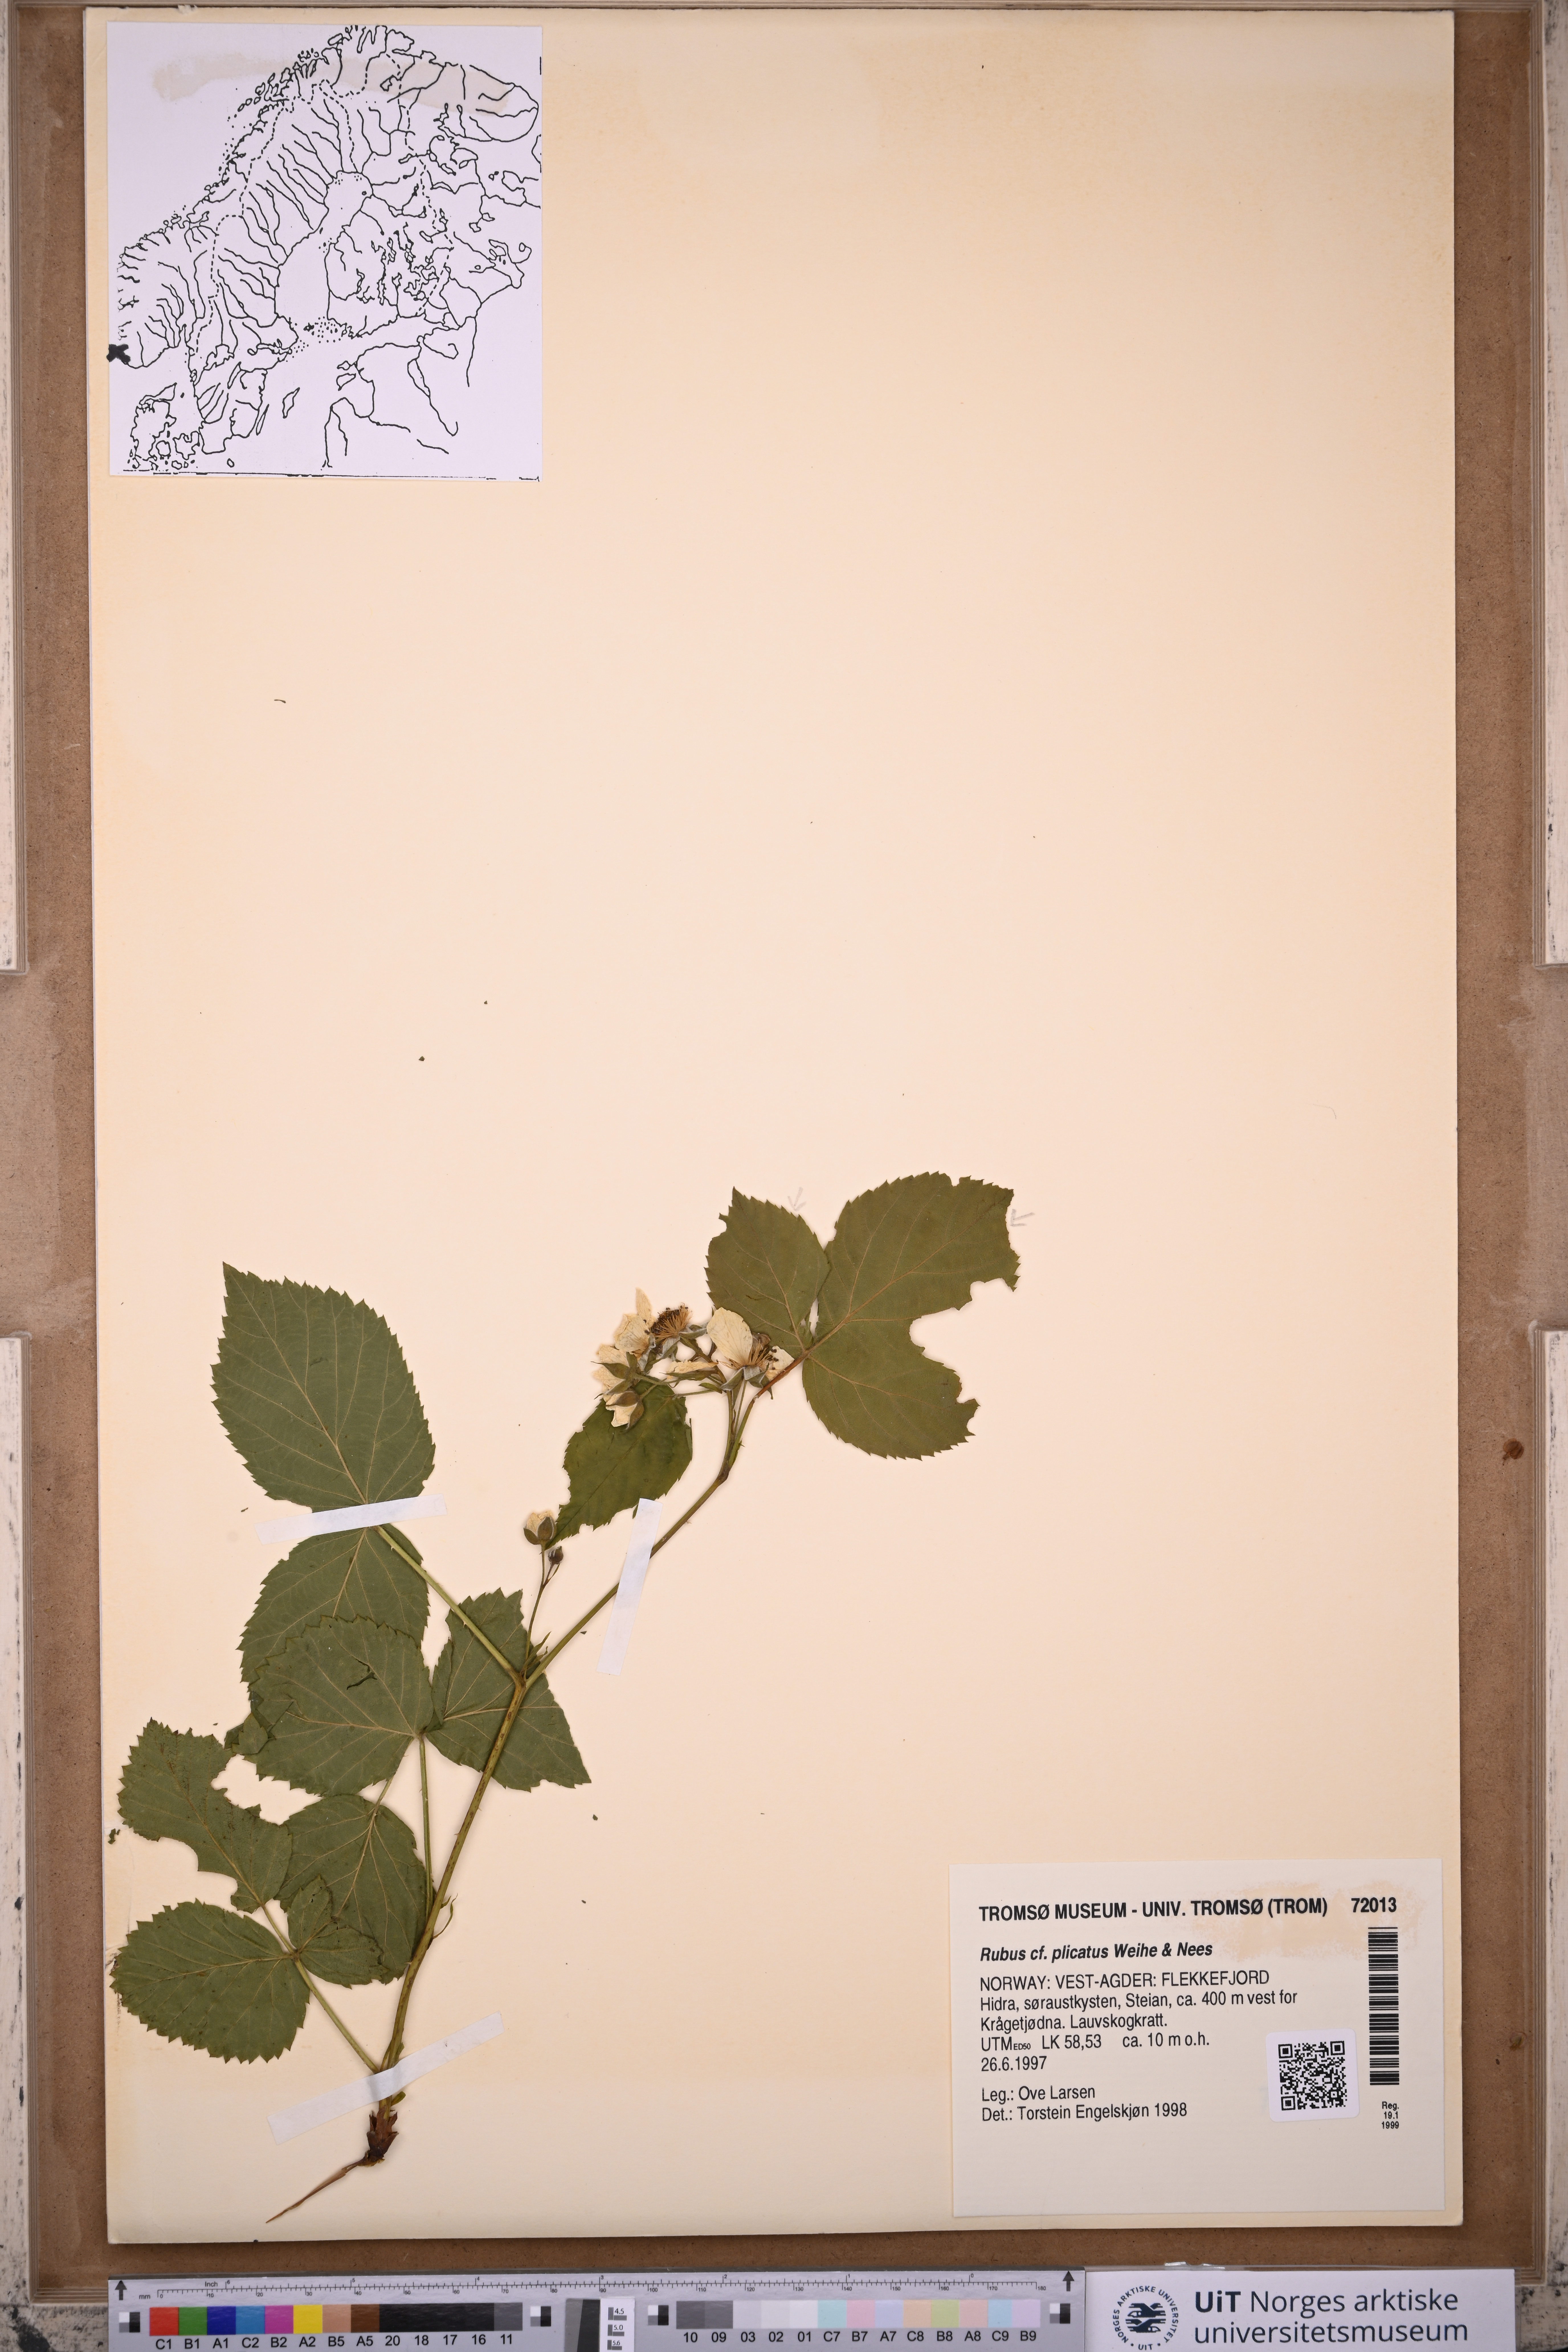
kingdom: Plantae
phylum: Tracheophyta
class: Magnoliopsida
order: Rosales
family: Rosaceae
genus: Rubus
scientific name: Rubus fruticosus
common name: Blackberry, bramble
